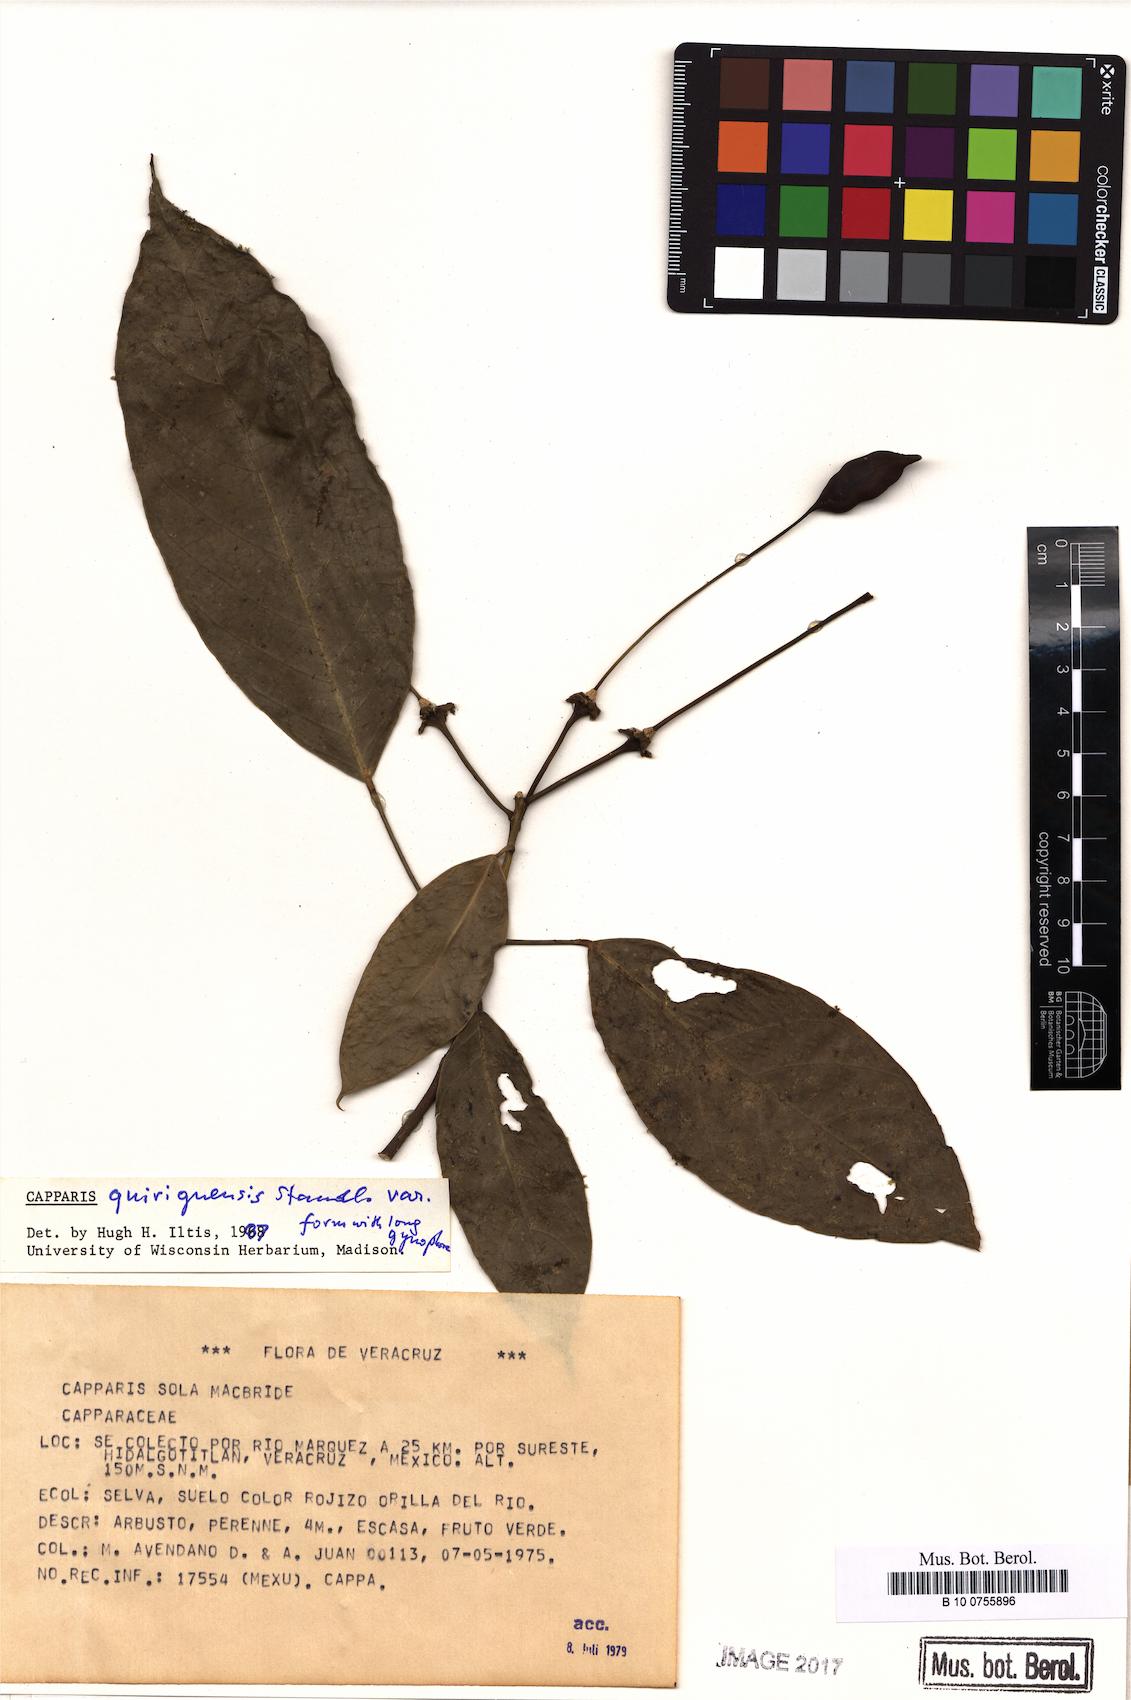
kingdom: Plantae
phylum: Tracheophyta
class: Magnoliopsida
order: Brassicales
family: Capparaceae
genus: Capparidastrum
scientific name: Capparidastrum quiriguense
